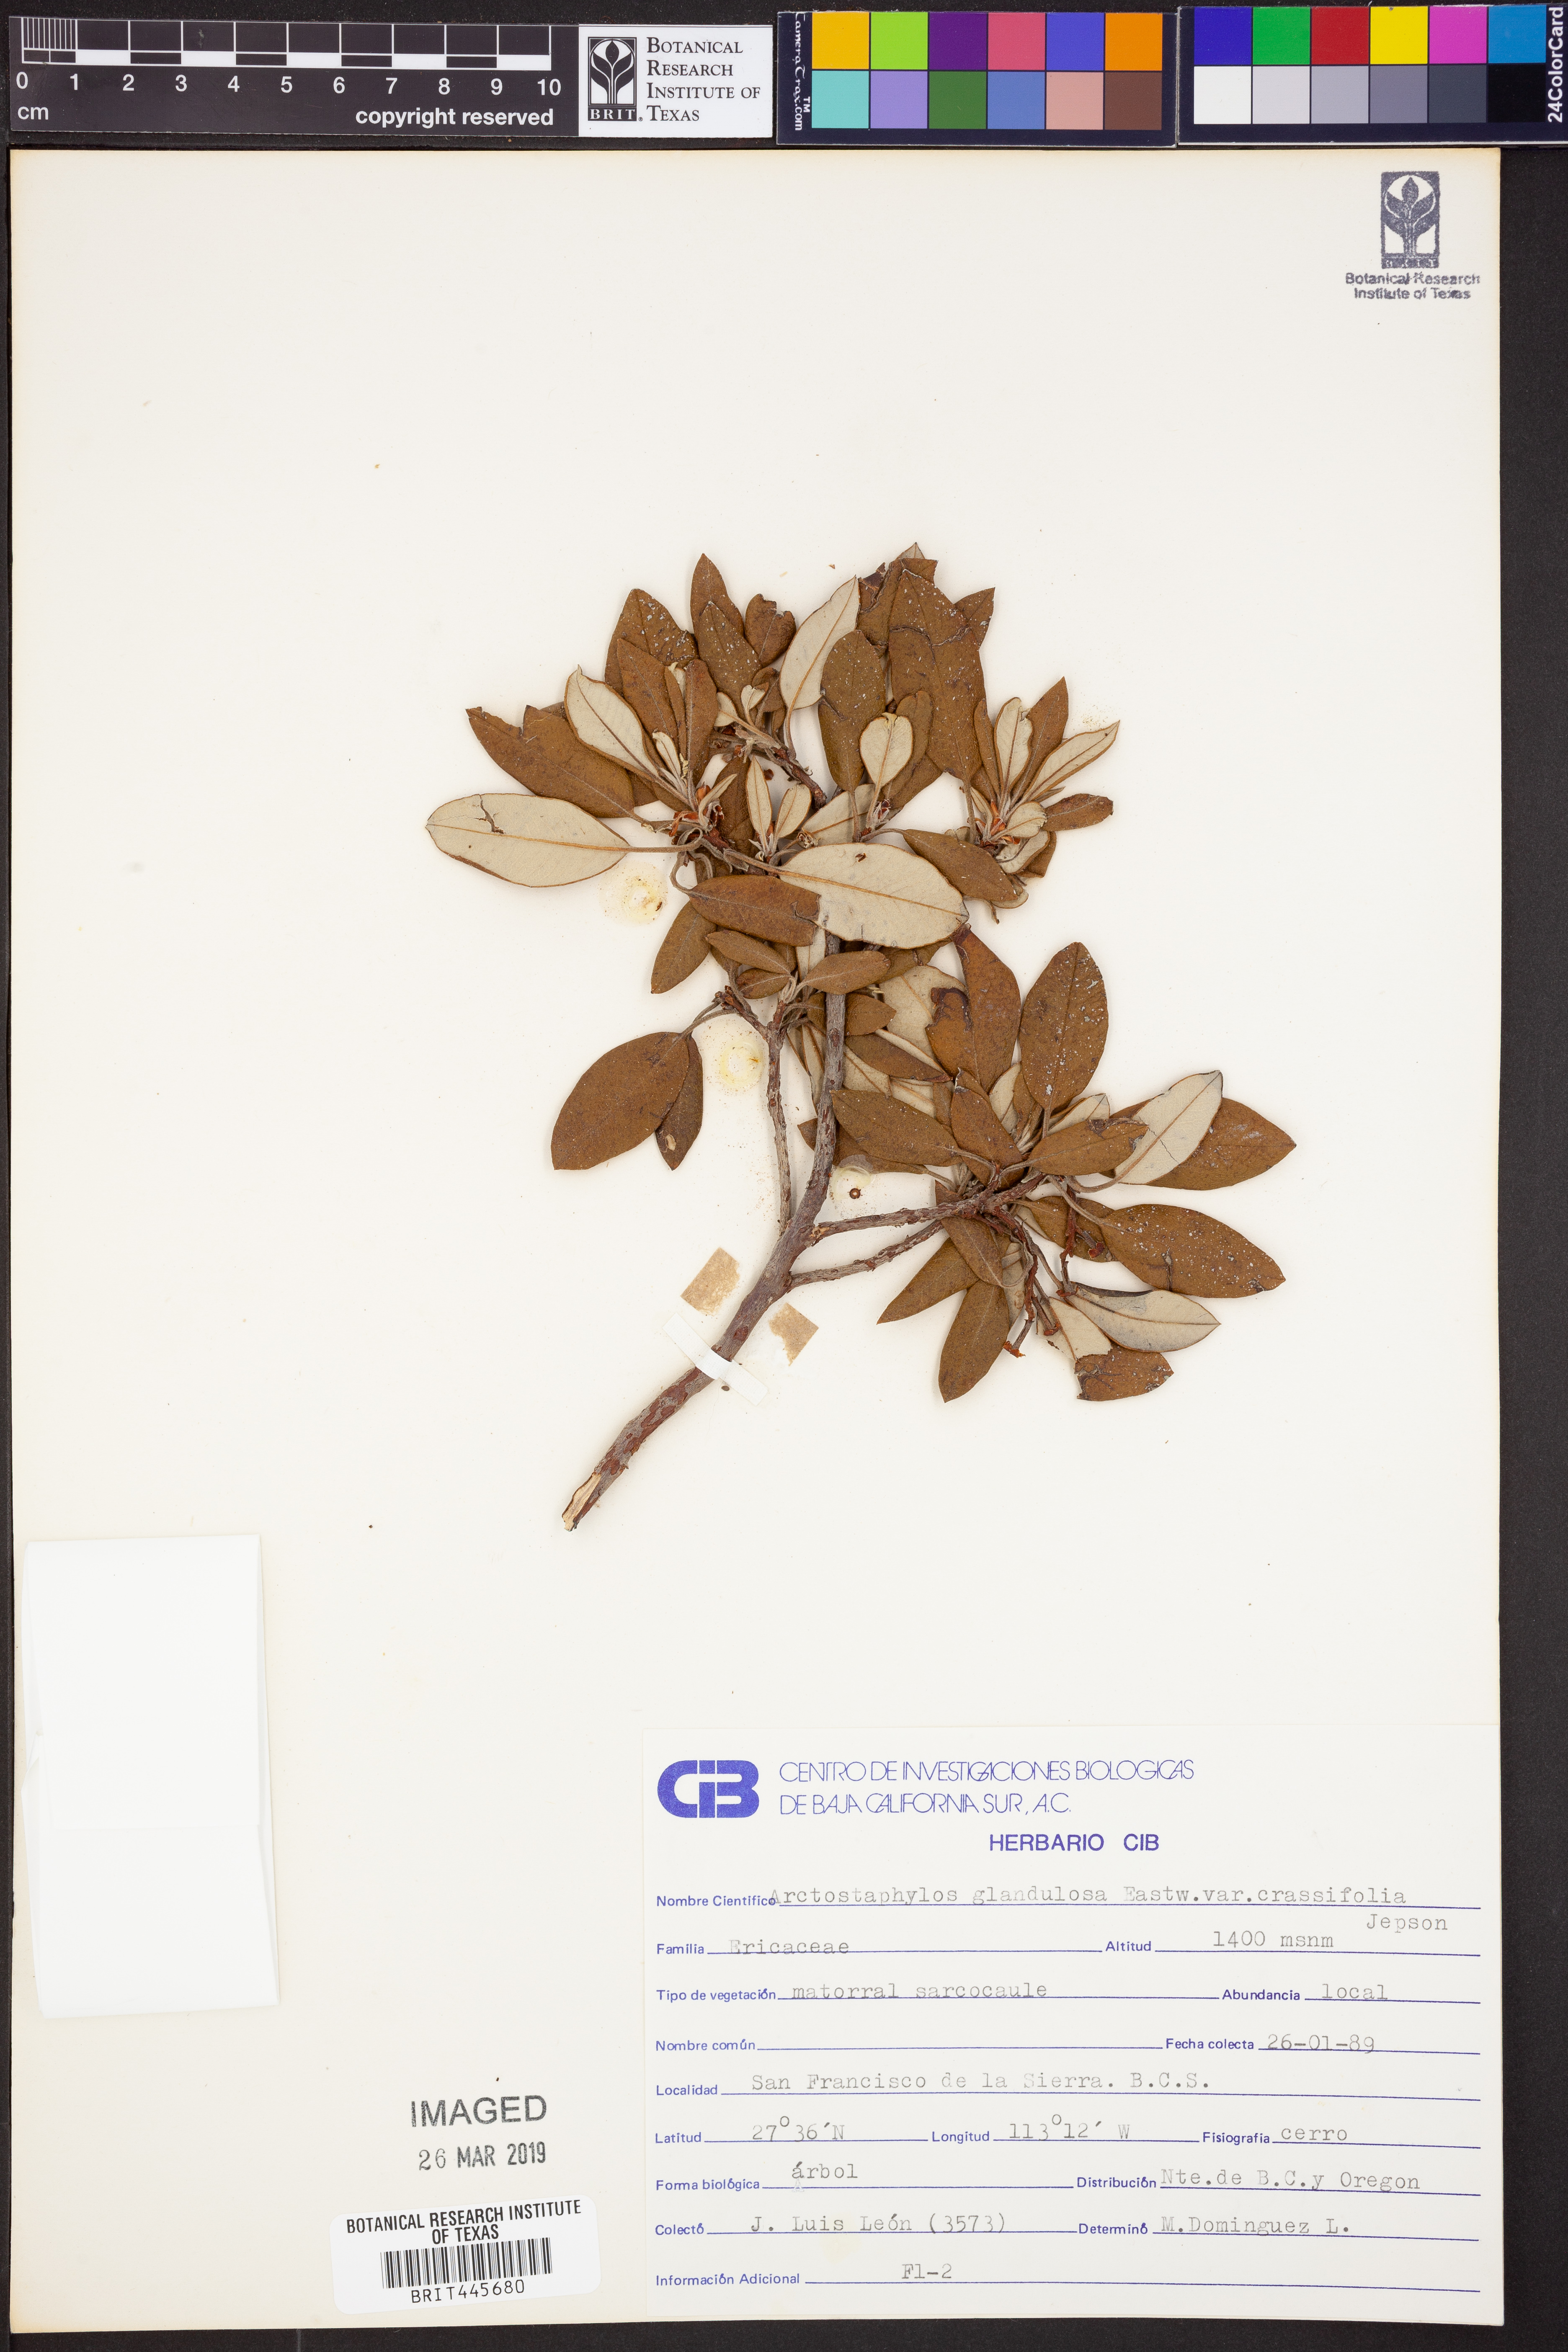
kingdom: Plantae
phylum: Tracheophyta
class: Magnoliopsida
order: Ericales
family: Ericaceae
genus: Arctostaphylos
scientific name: Arctostaphylos glandulosa
